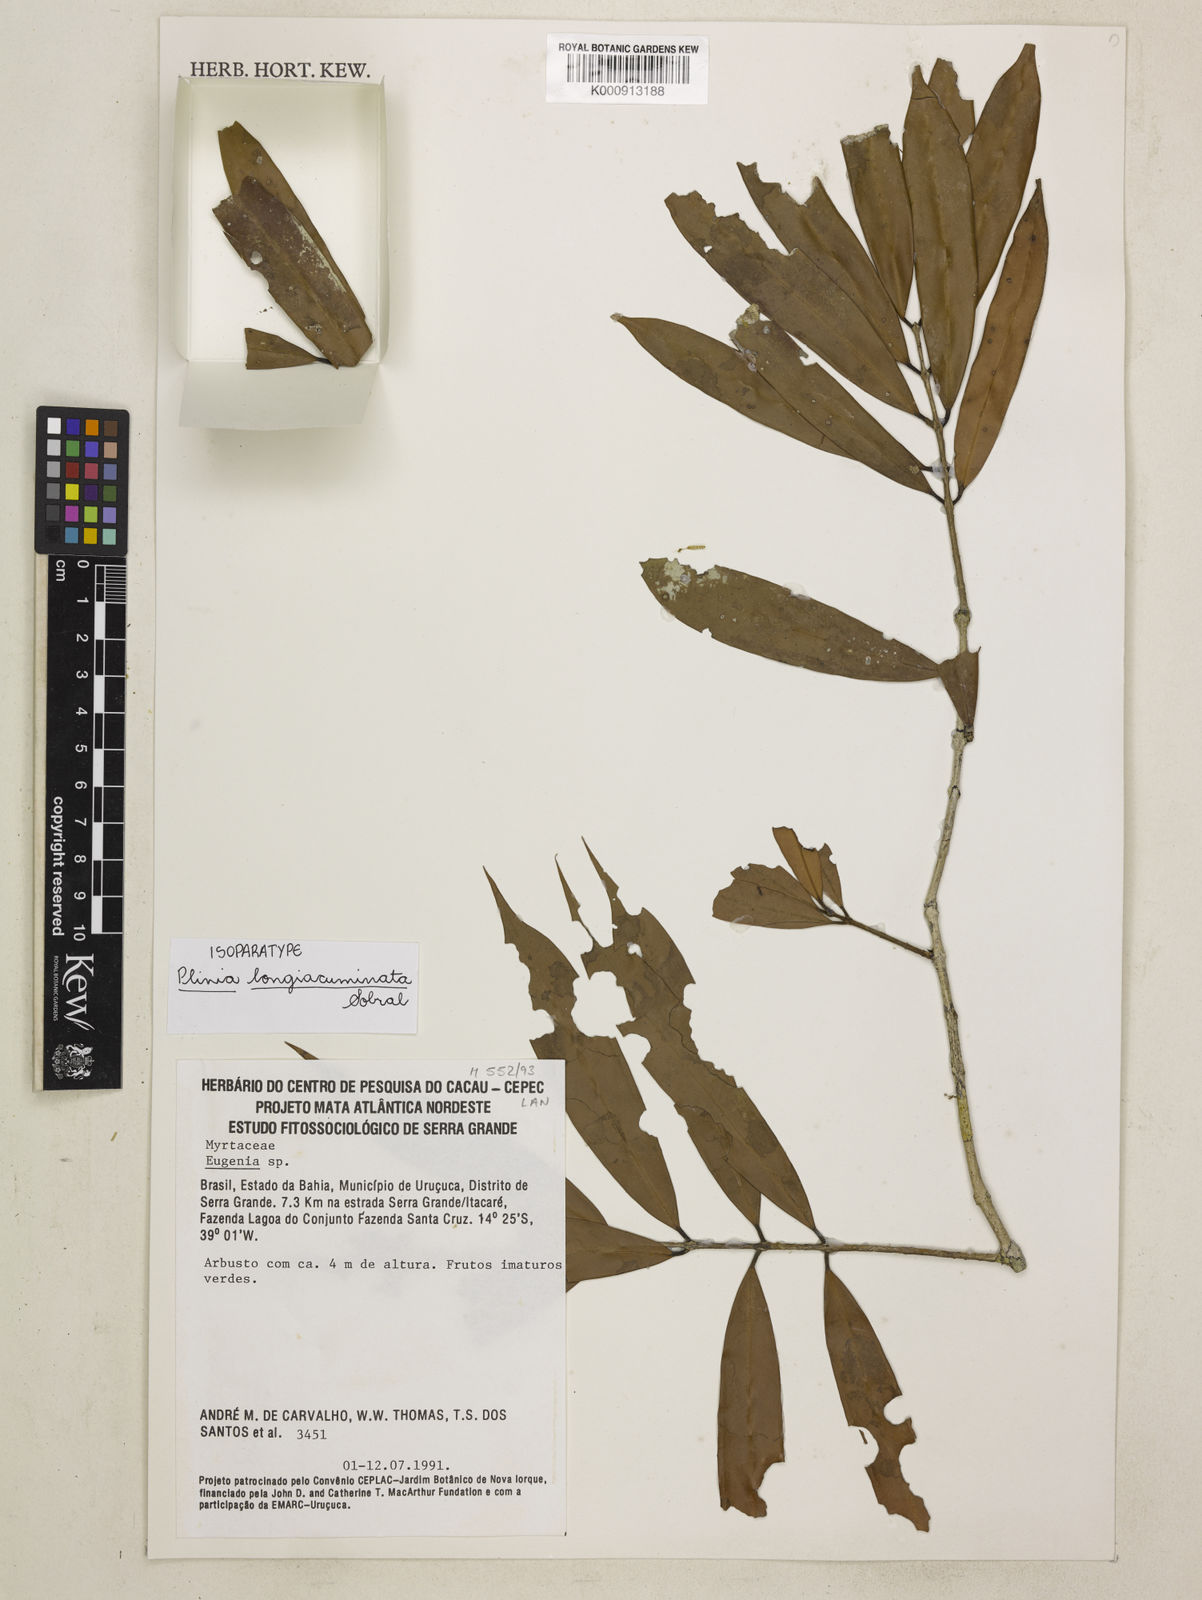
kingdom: Plantae
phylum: Tracheophyta
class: Magnoliopsida
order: Myrtales
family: Myrtaceae
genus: Plinia
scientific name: Plinia longiacuminata
